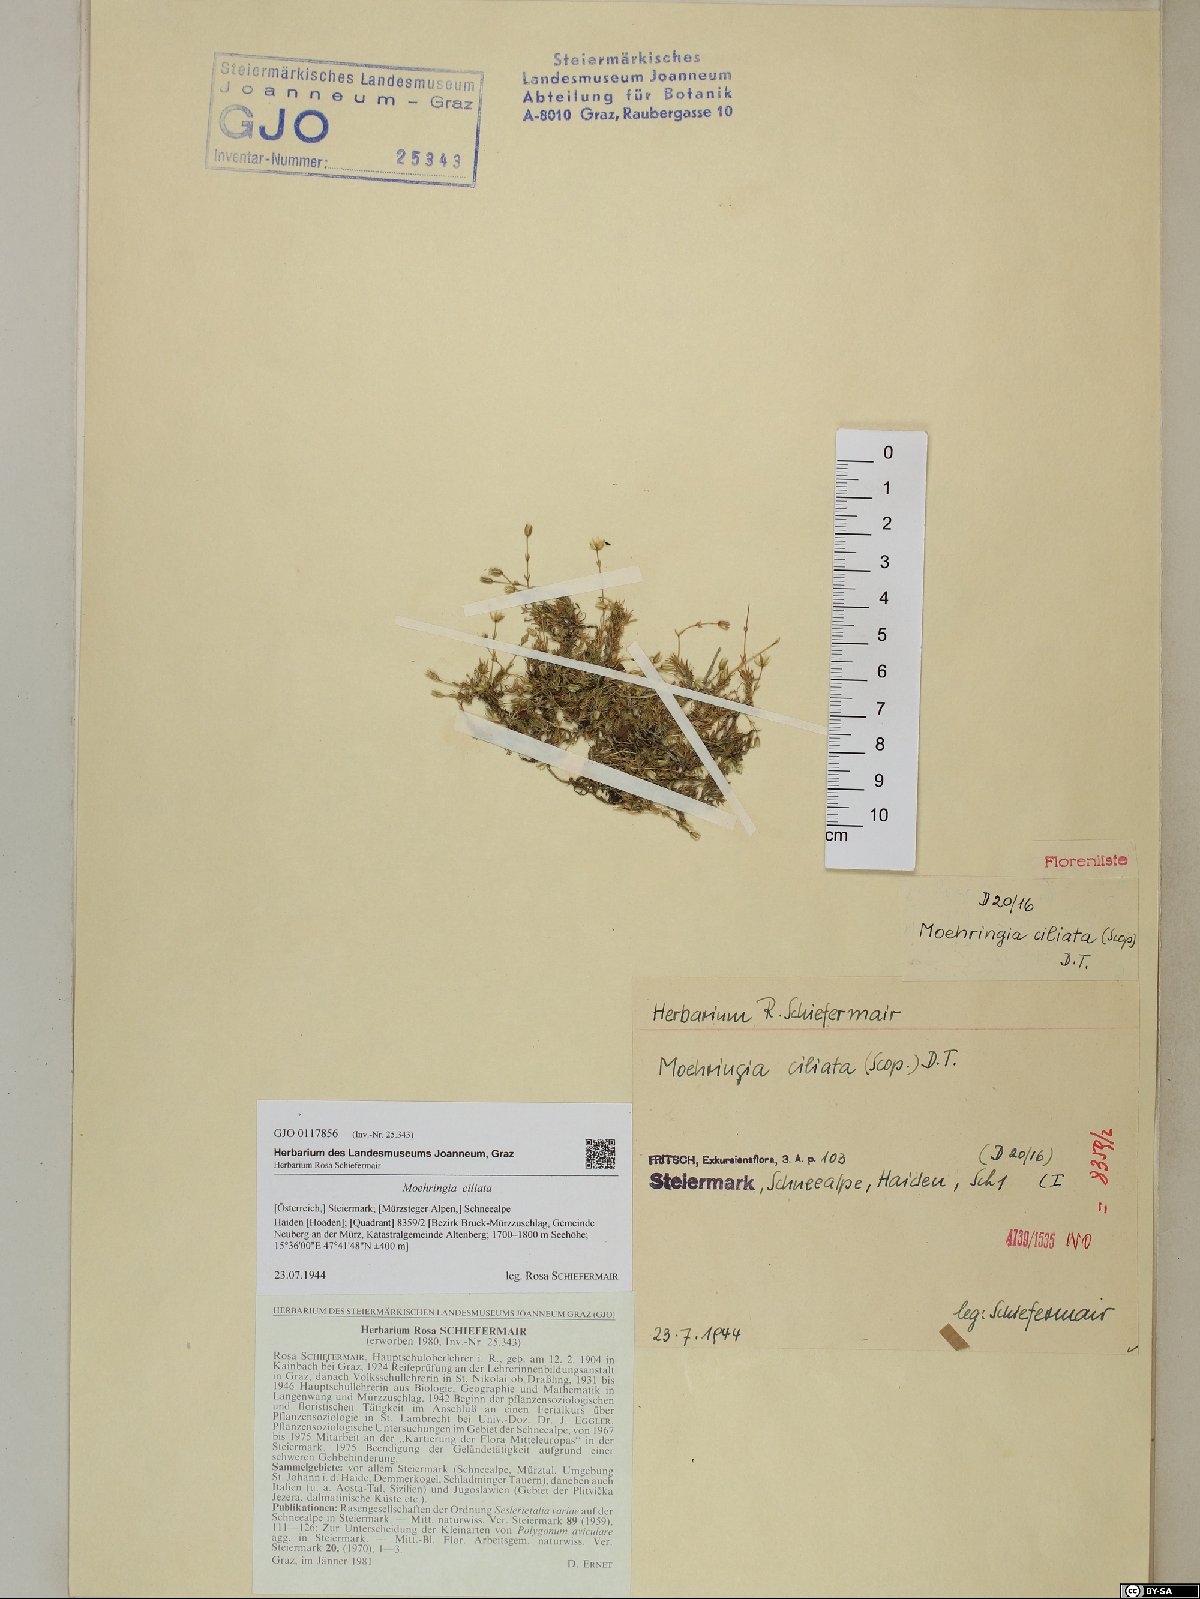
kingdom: Plantae
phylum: Tracheophyta
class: Magnoliopsida
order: Caryophyllales
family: Caryophyllaceae
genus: Moehringia
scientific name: Moehringia ciliata
